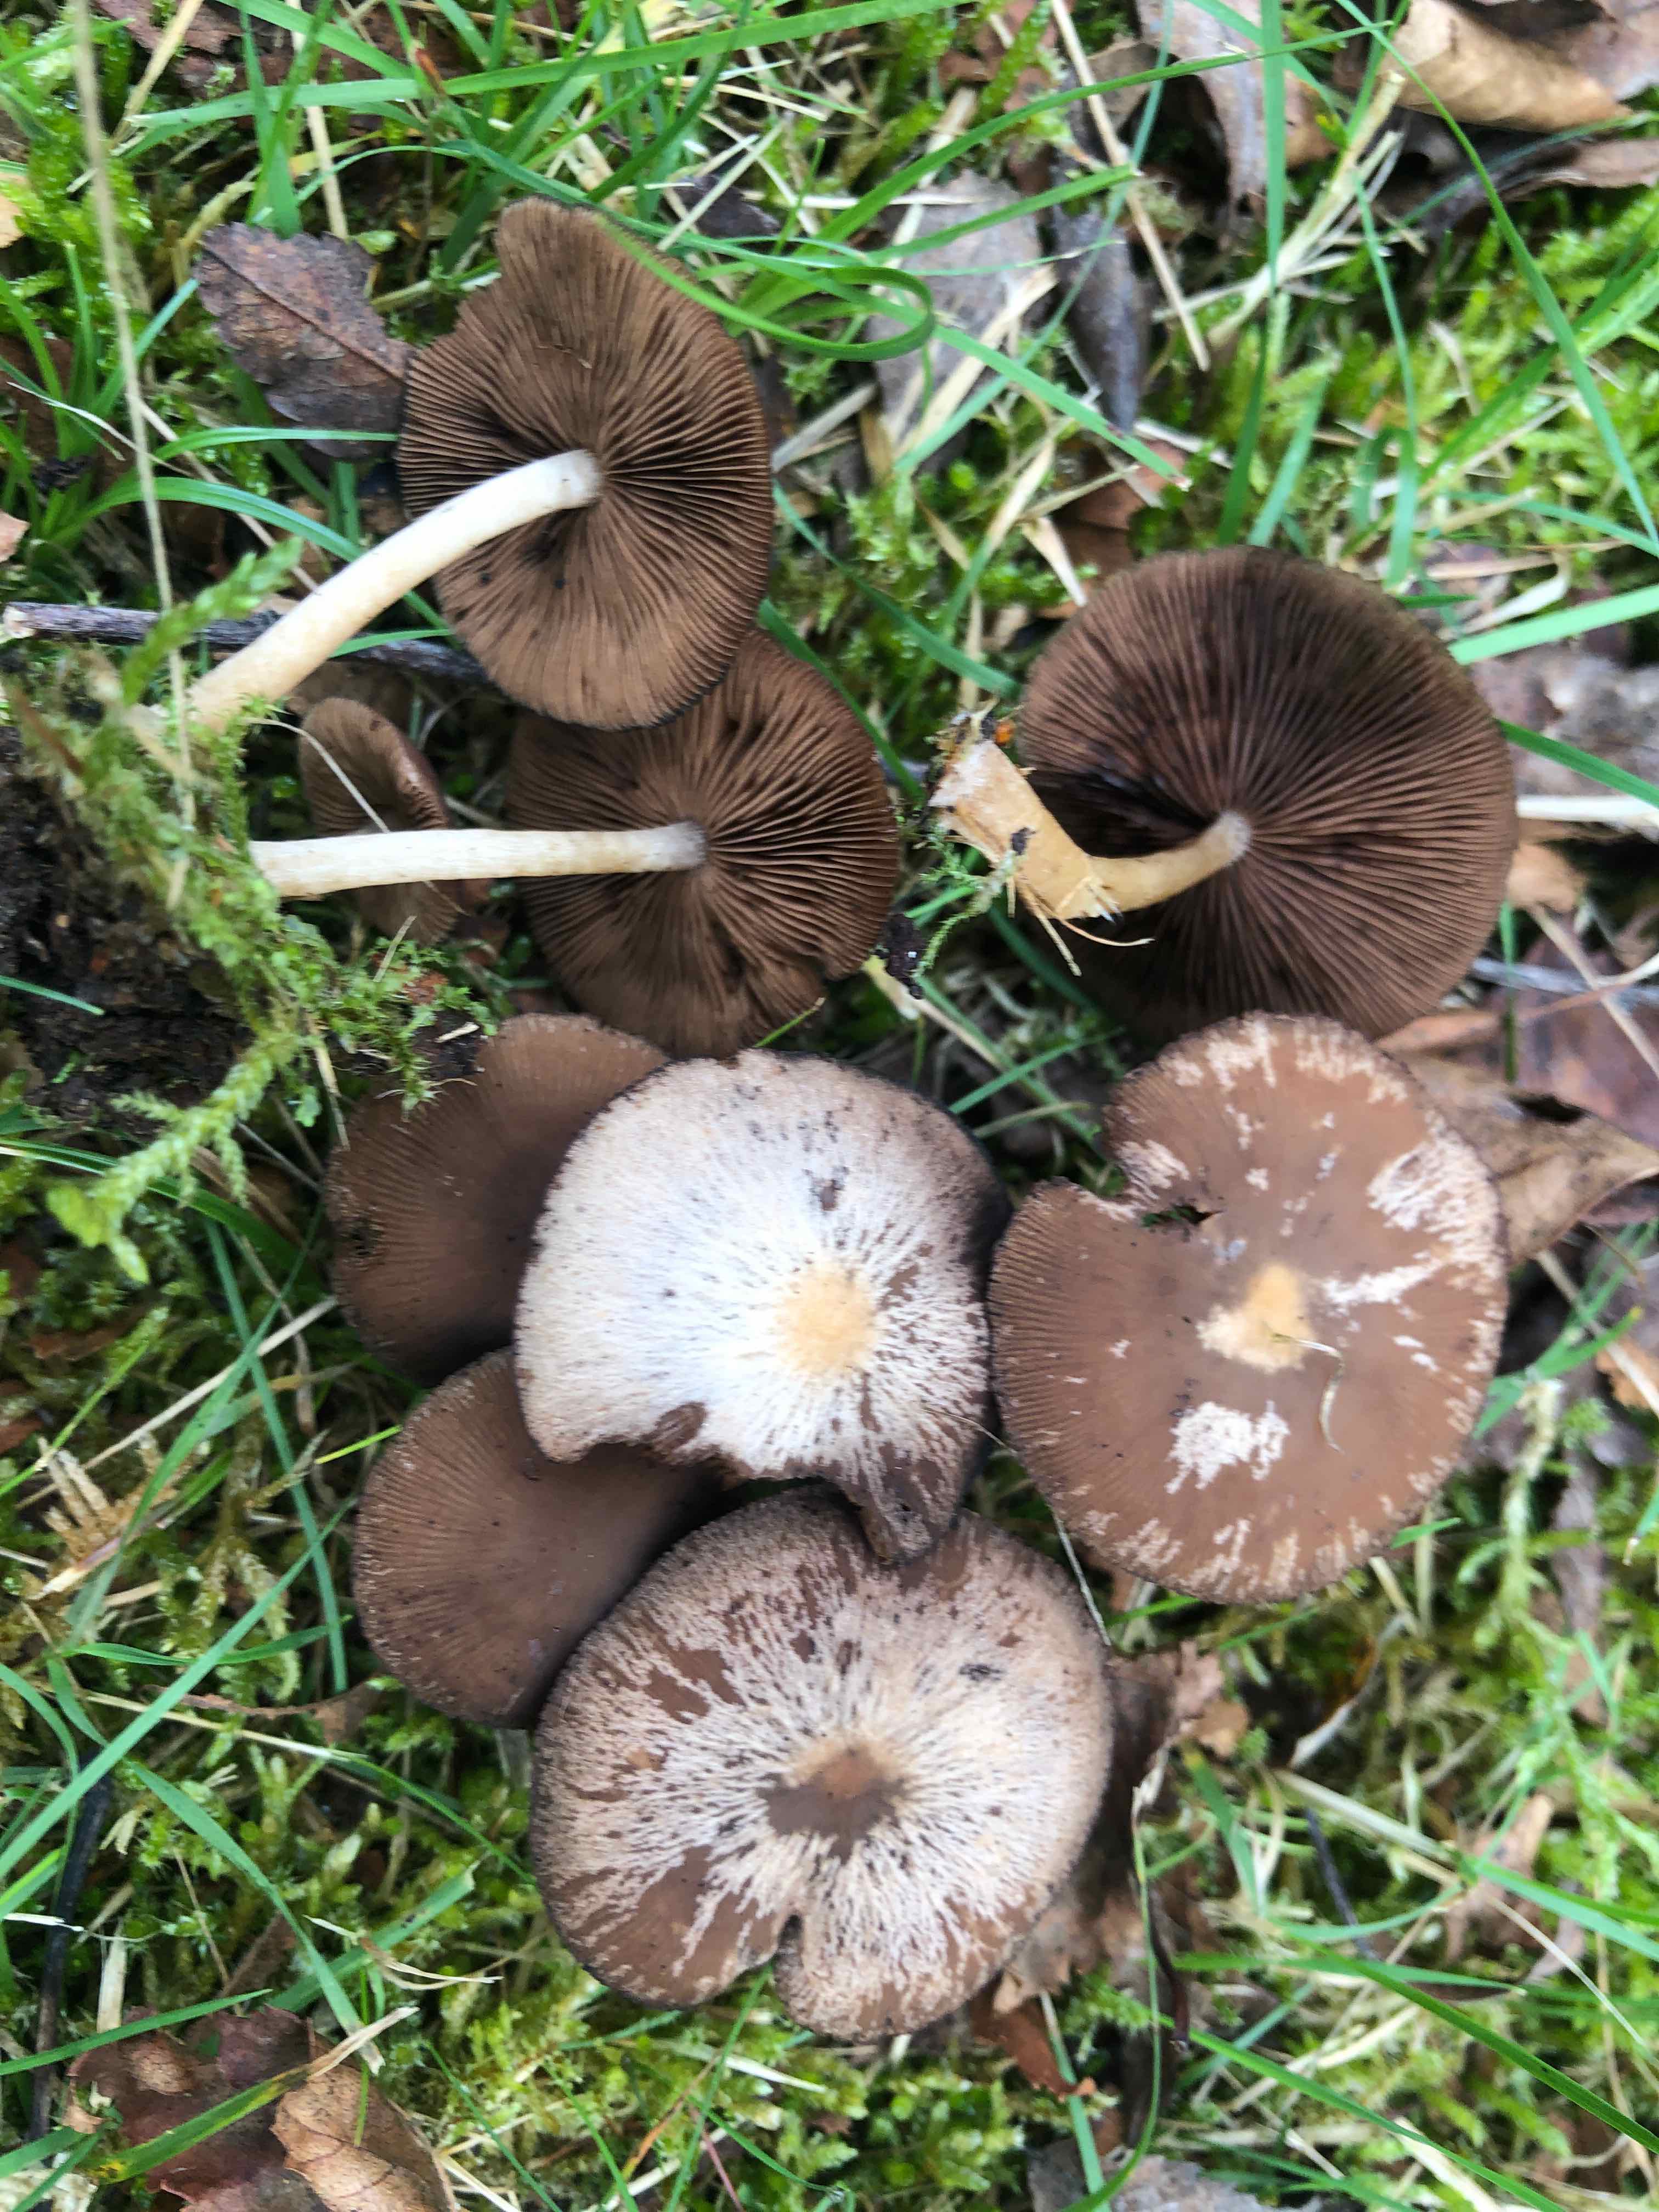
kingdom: Fungi
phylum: Basidiomycota
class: Agaricomycetes
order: Agaricales
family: Psathyrellaceae
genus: Psathyrella
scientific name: Psathyrella piluliformis
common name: lysstokket mørkhat
